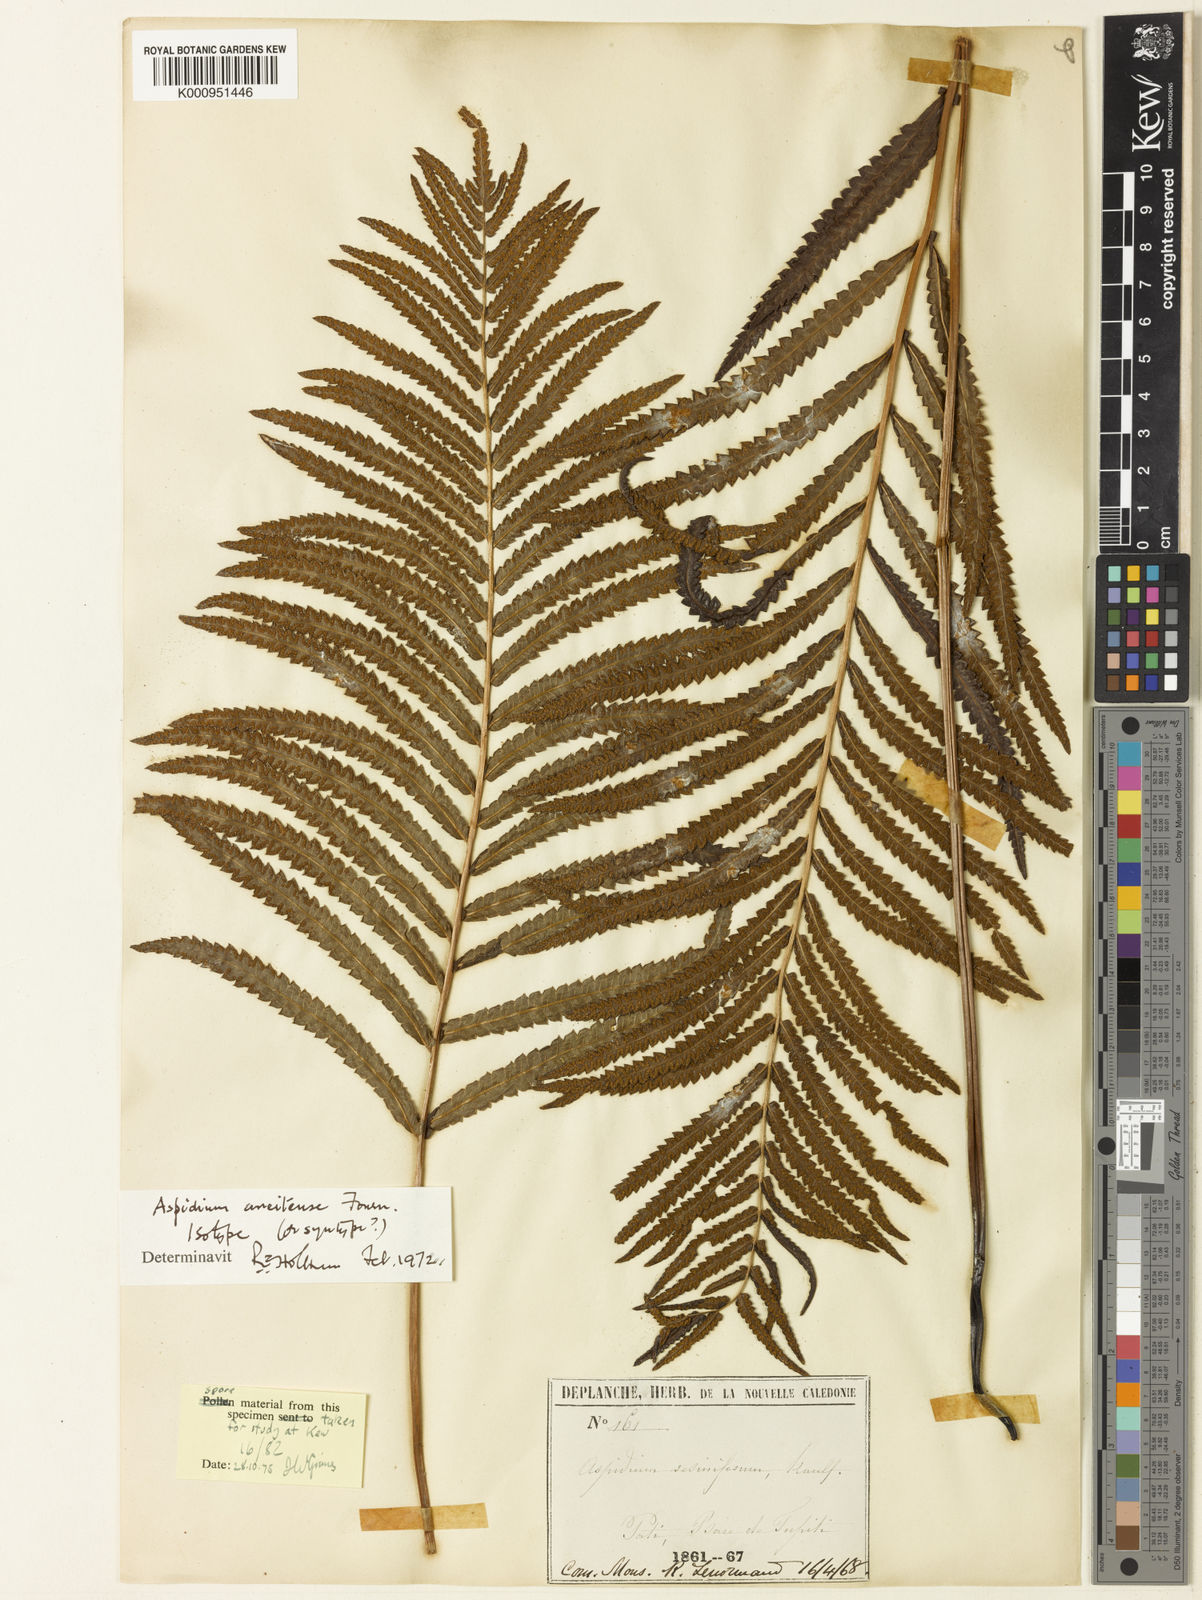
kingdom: Plantae
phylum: Tracheophyta
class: Polypodiopsida
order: Polypodiales
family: Thelypteridaceae
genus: Cyclosorus
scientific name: Cyclosorus interruptus
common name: Neke fern
